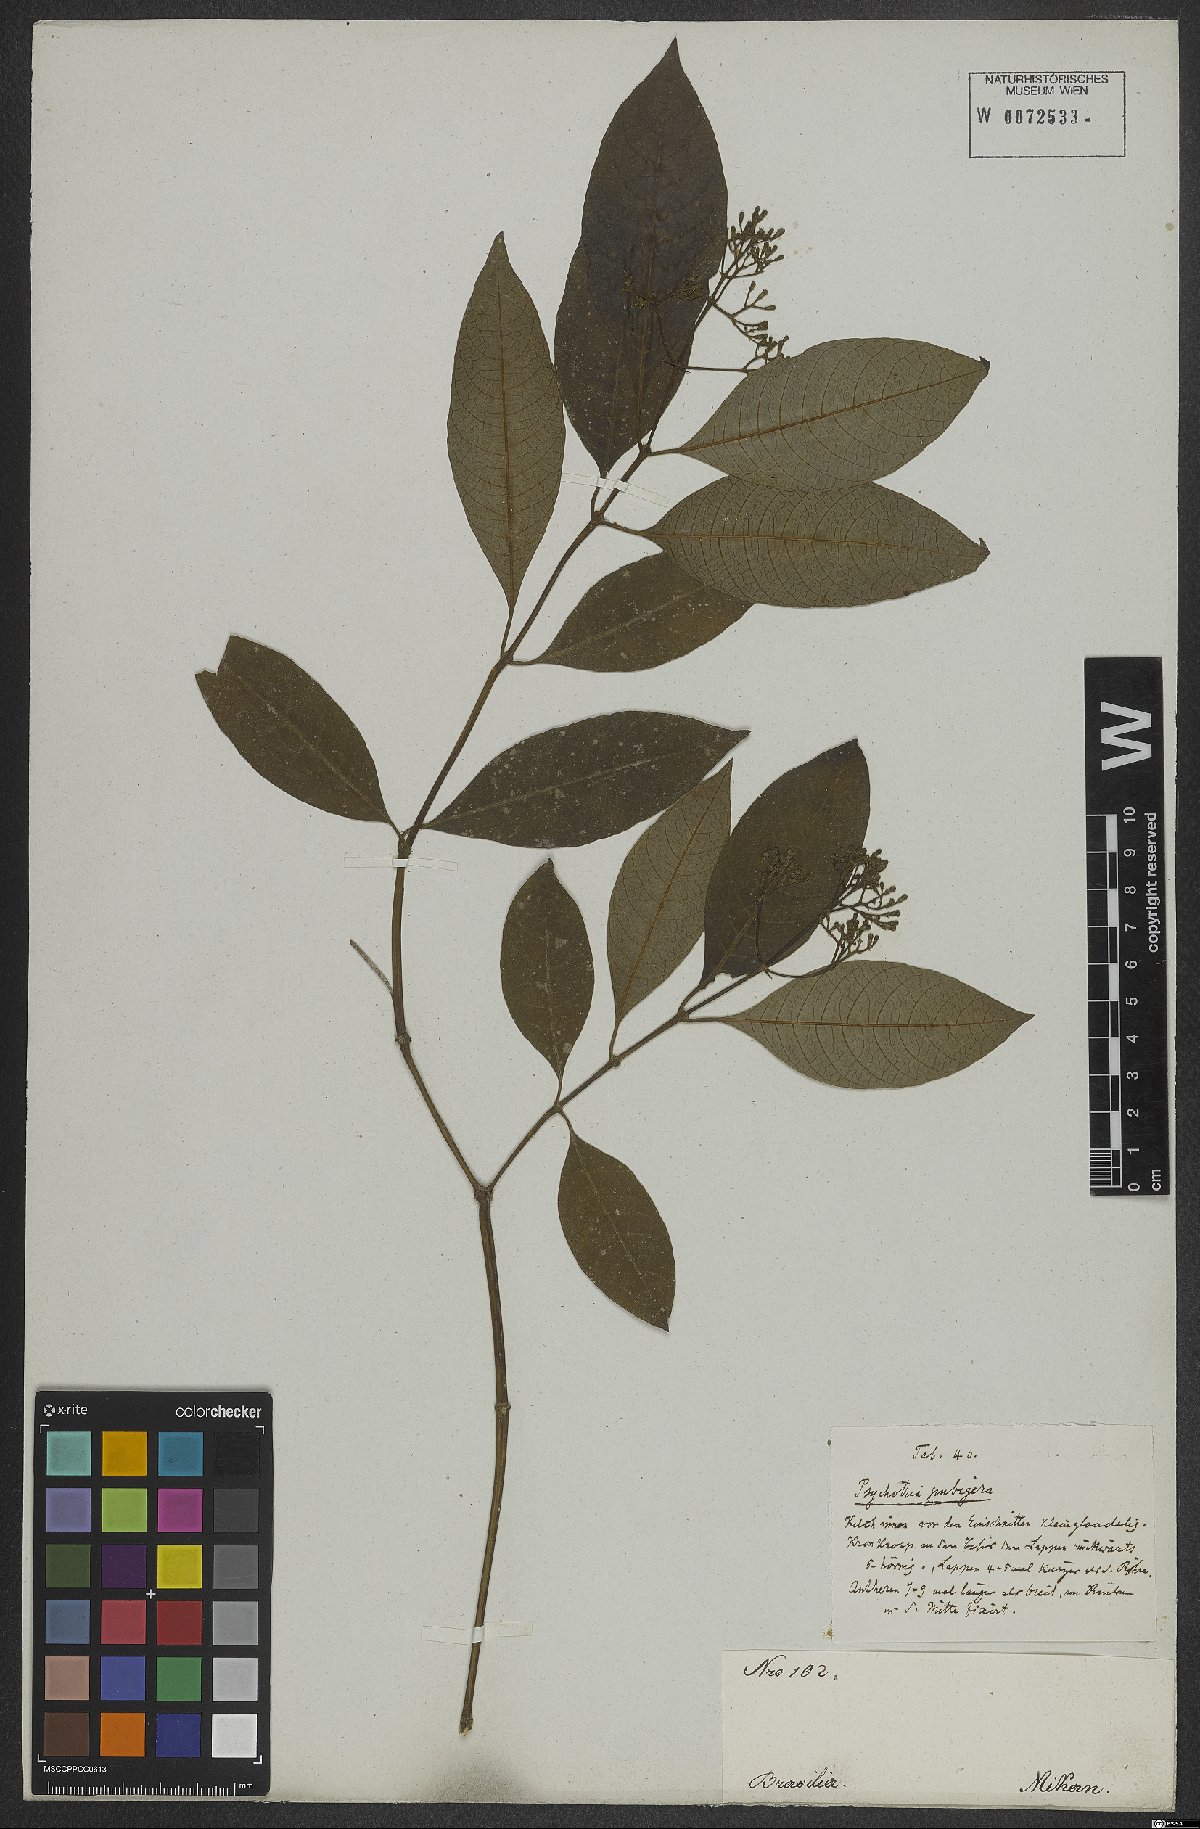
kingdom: Plantae
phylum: Tracheophyta
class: Magnoliopsida
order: Gentianales
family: Rubiaceae
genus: Psychotria
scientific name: Psychotria nemorosa
